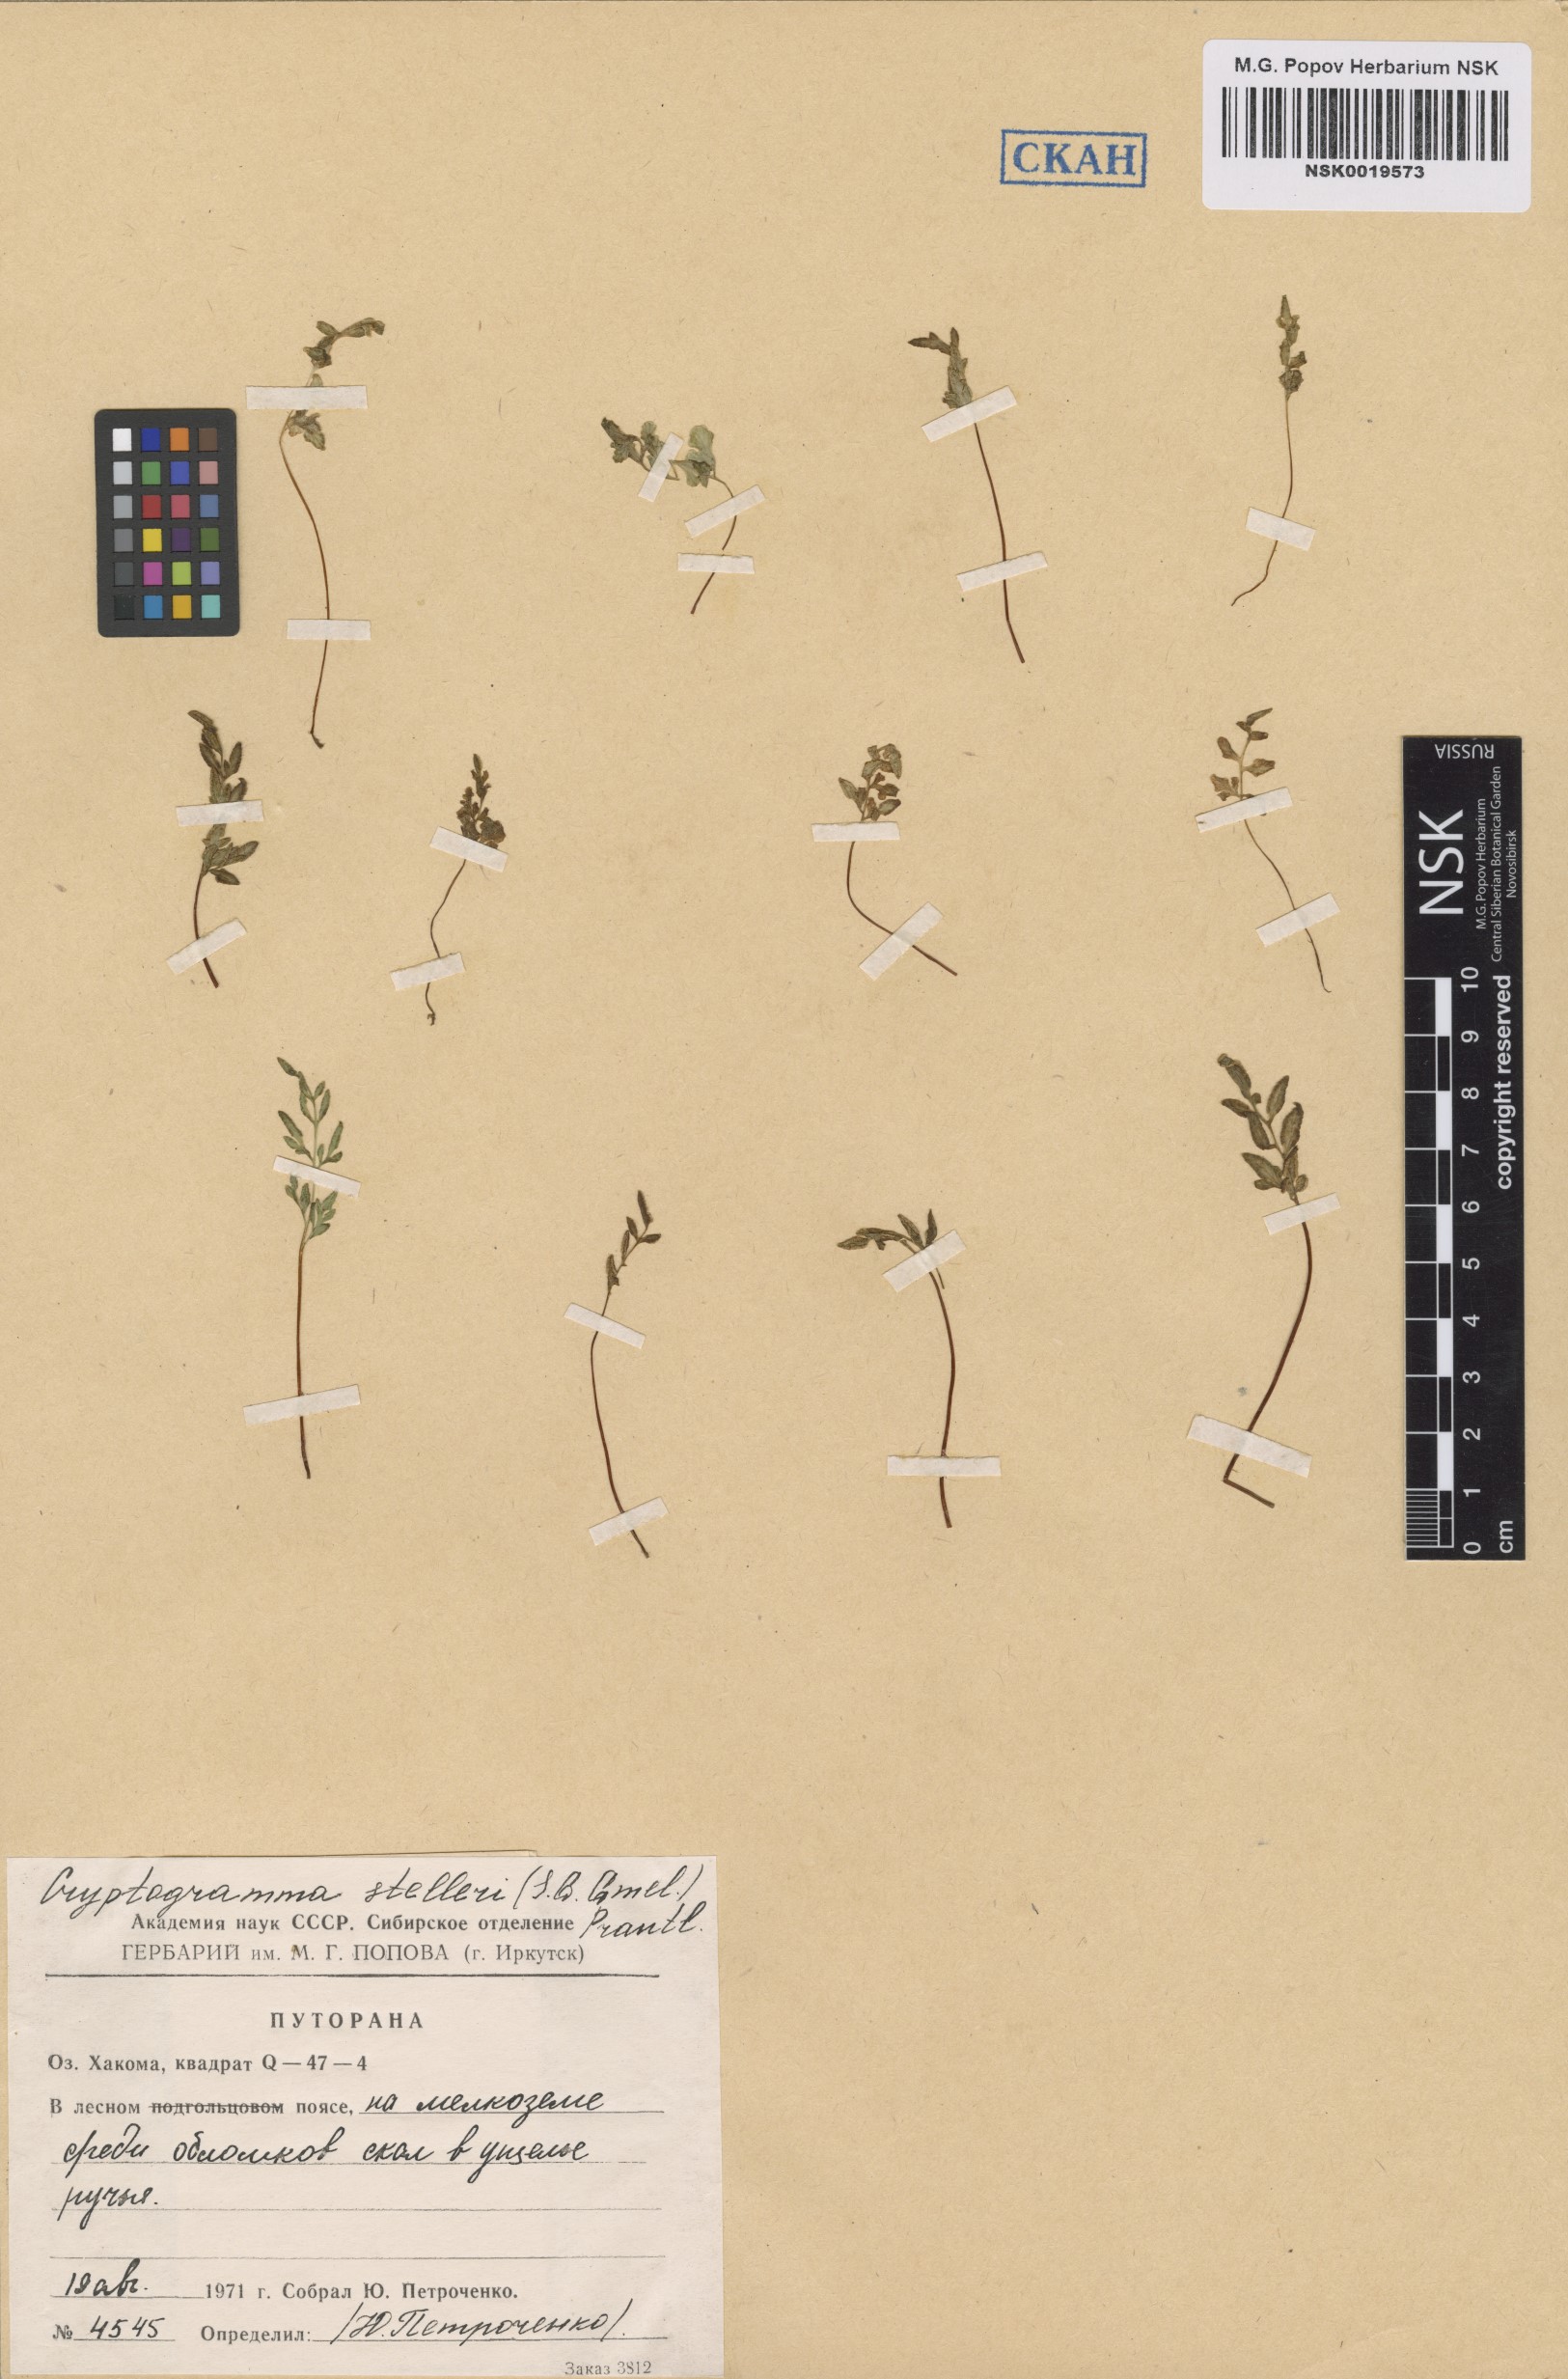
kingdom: Plantae
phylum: Tracheophyta
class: Polypodiopsida
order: Polypodiales
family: Pteridaceae
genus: Cryptogramma
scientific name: Cryptogramma stelleri
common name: Cliff-brake
